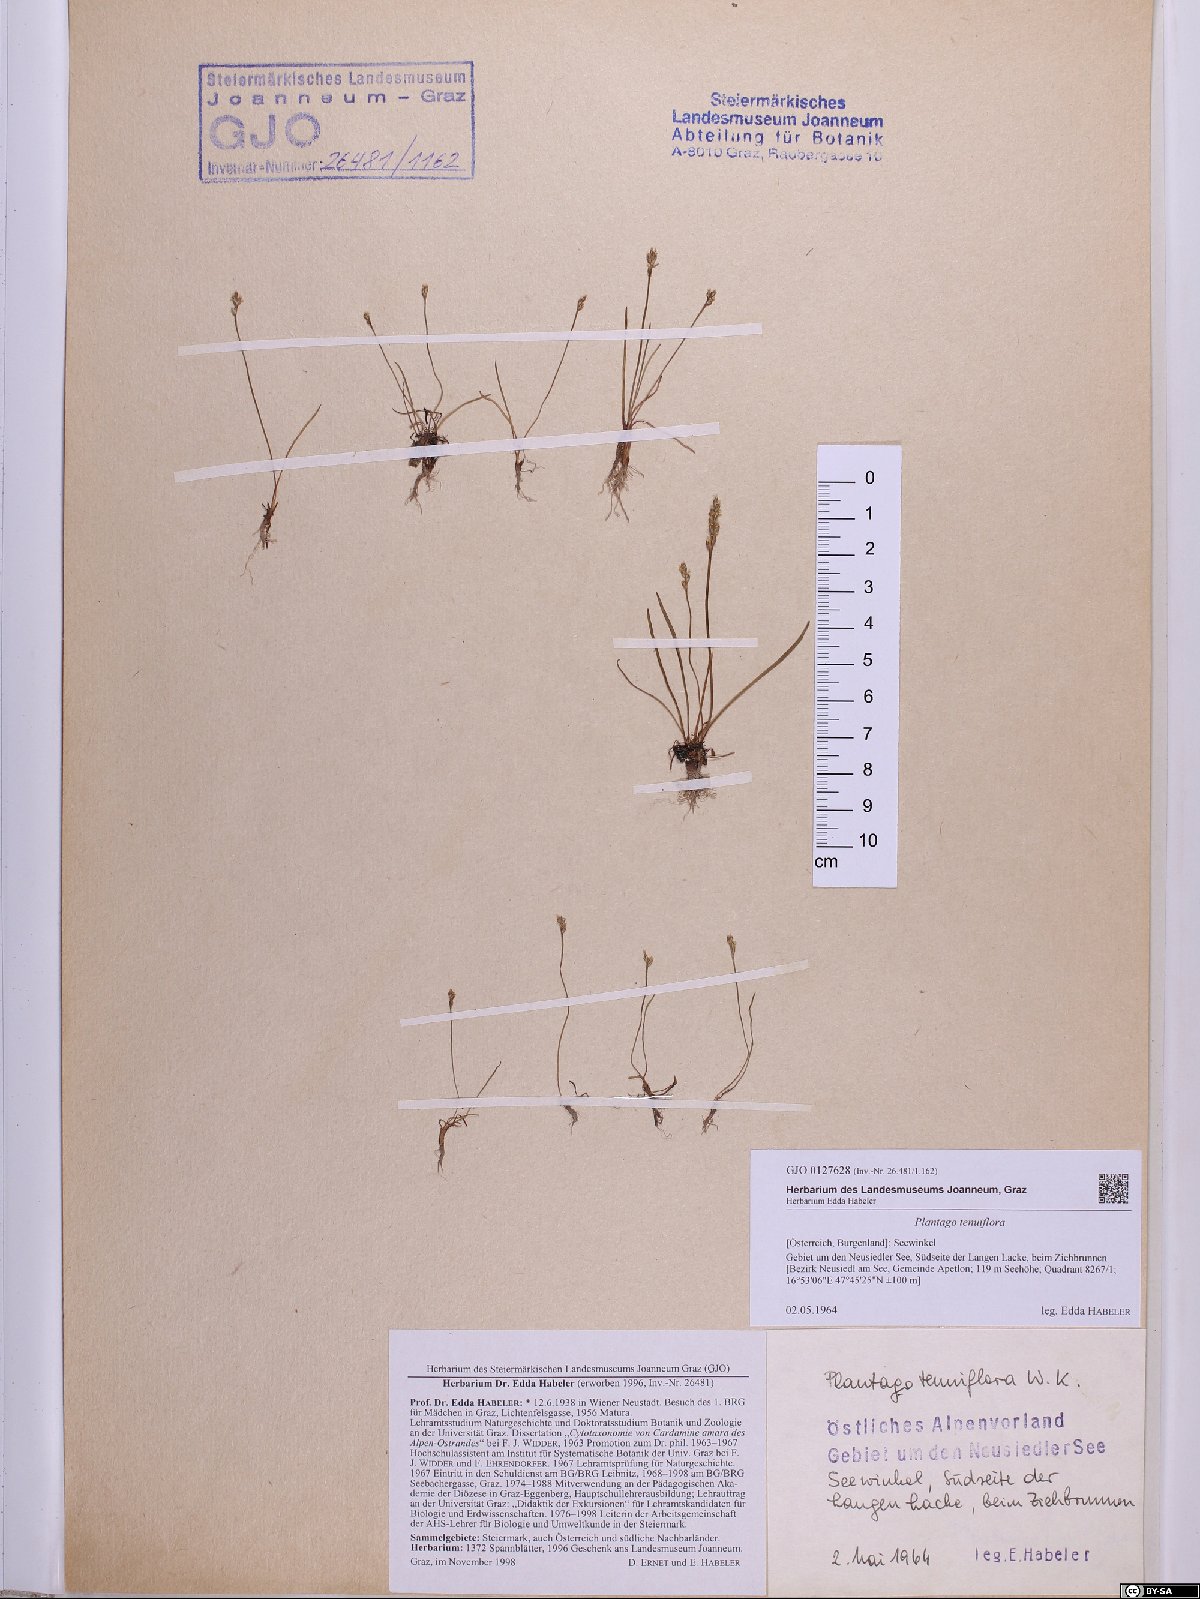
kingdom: Plantae
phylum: Tracheophyta
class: Magnoliopsida
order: Lamiales
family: Plantaginaceae
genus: Plantago
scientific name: Plantago tenuiflora
